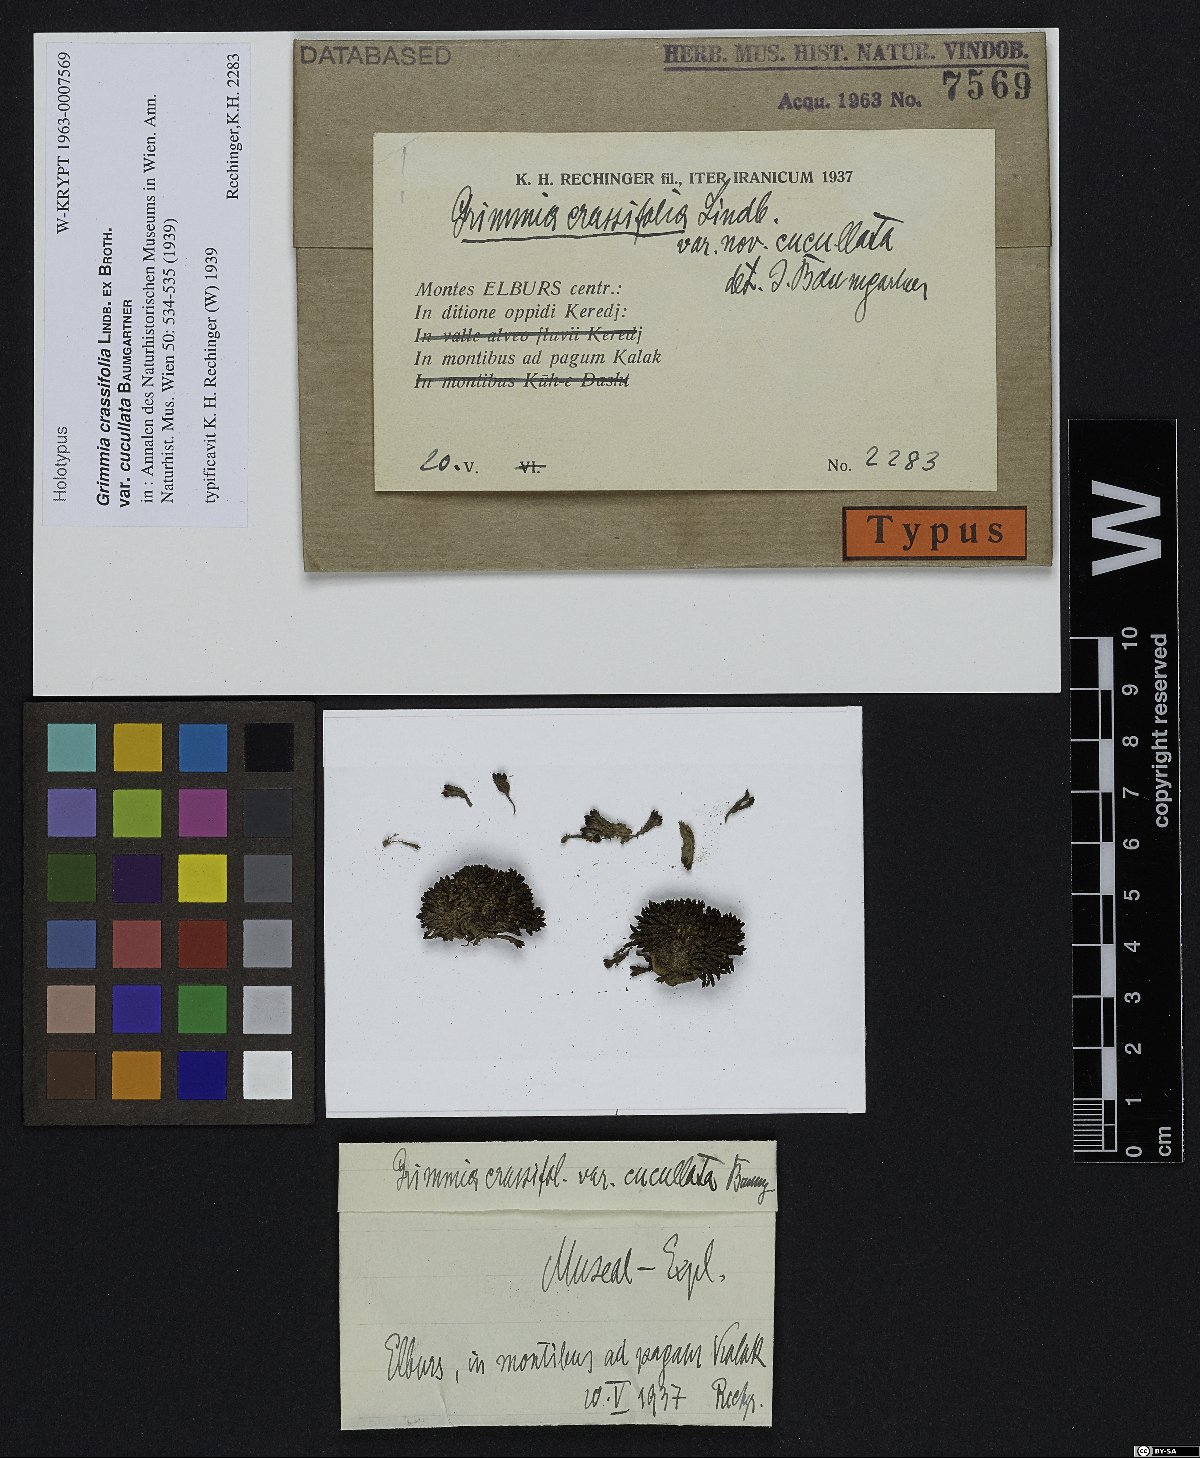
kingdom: Plantae
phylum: Bryophyta
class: Bryopsida
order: Grimmiales
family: Grimmiaceae
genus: Grimmia
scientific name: Grimmia tergestina
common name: Dapple-mouthed grimmia
